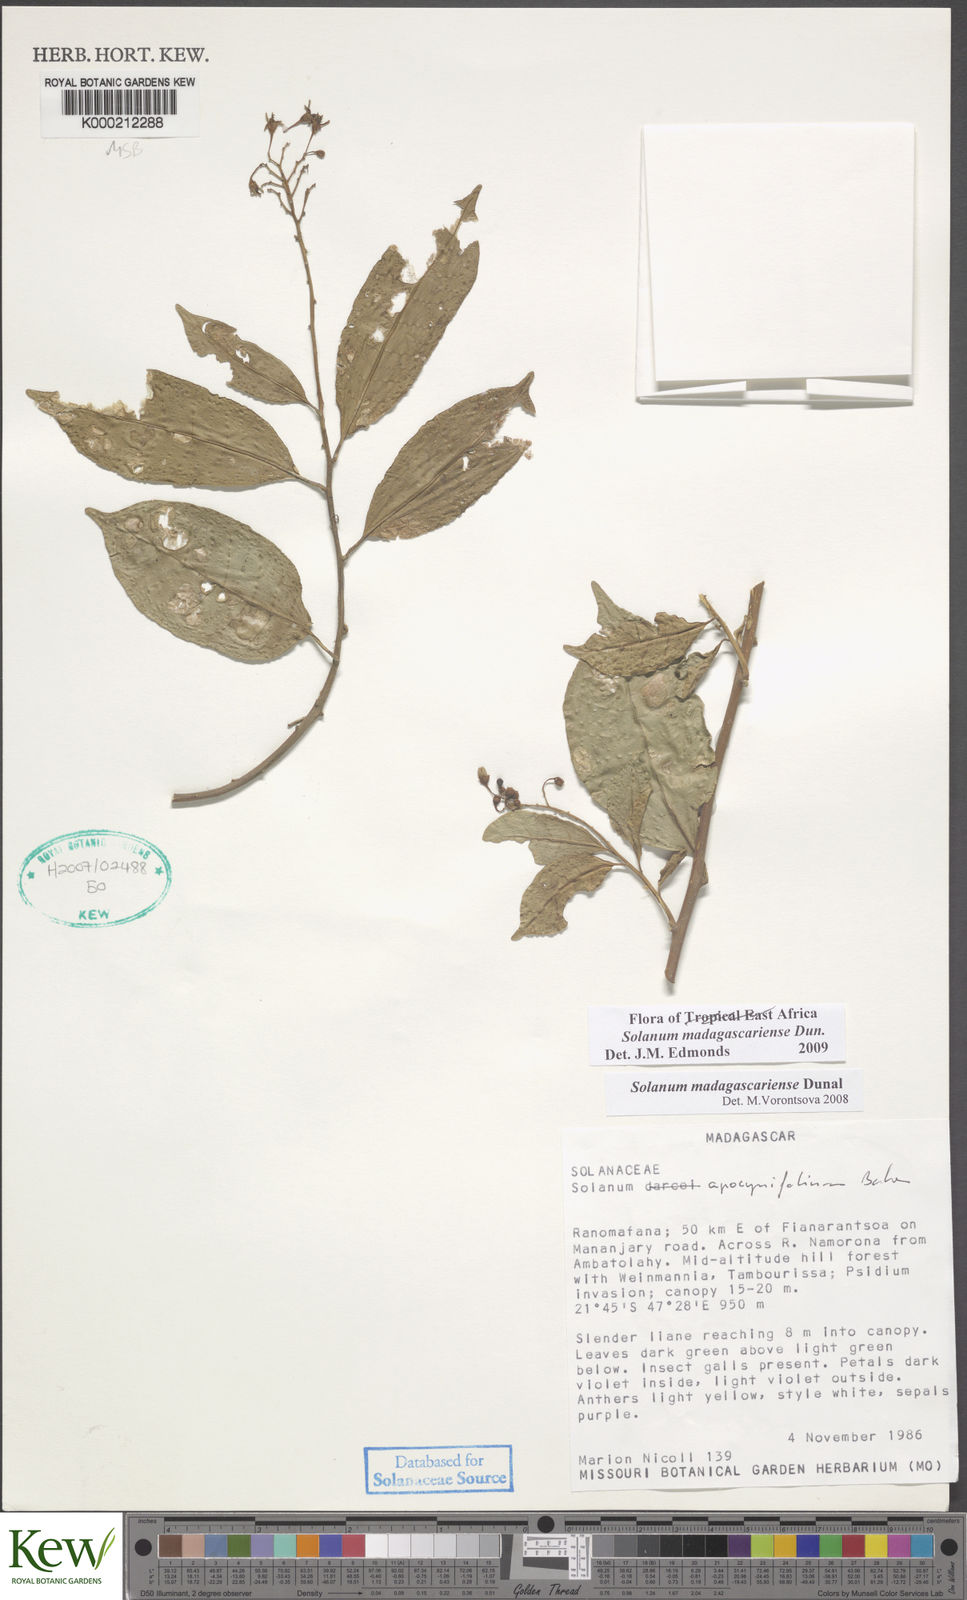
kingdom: Plantae
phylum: Tracheophyta
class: Magnoliopsida
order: Solanales
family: Solanaceae
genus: Solanum
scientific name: Solanum madagascariense
